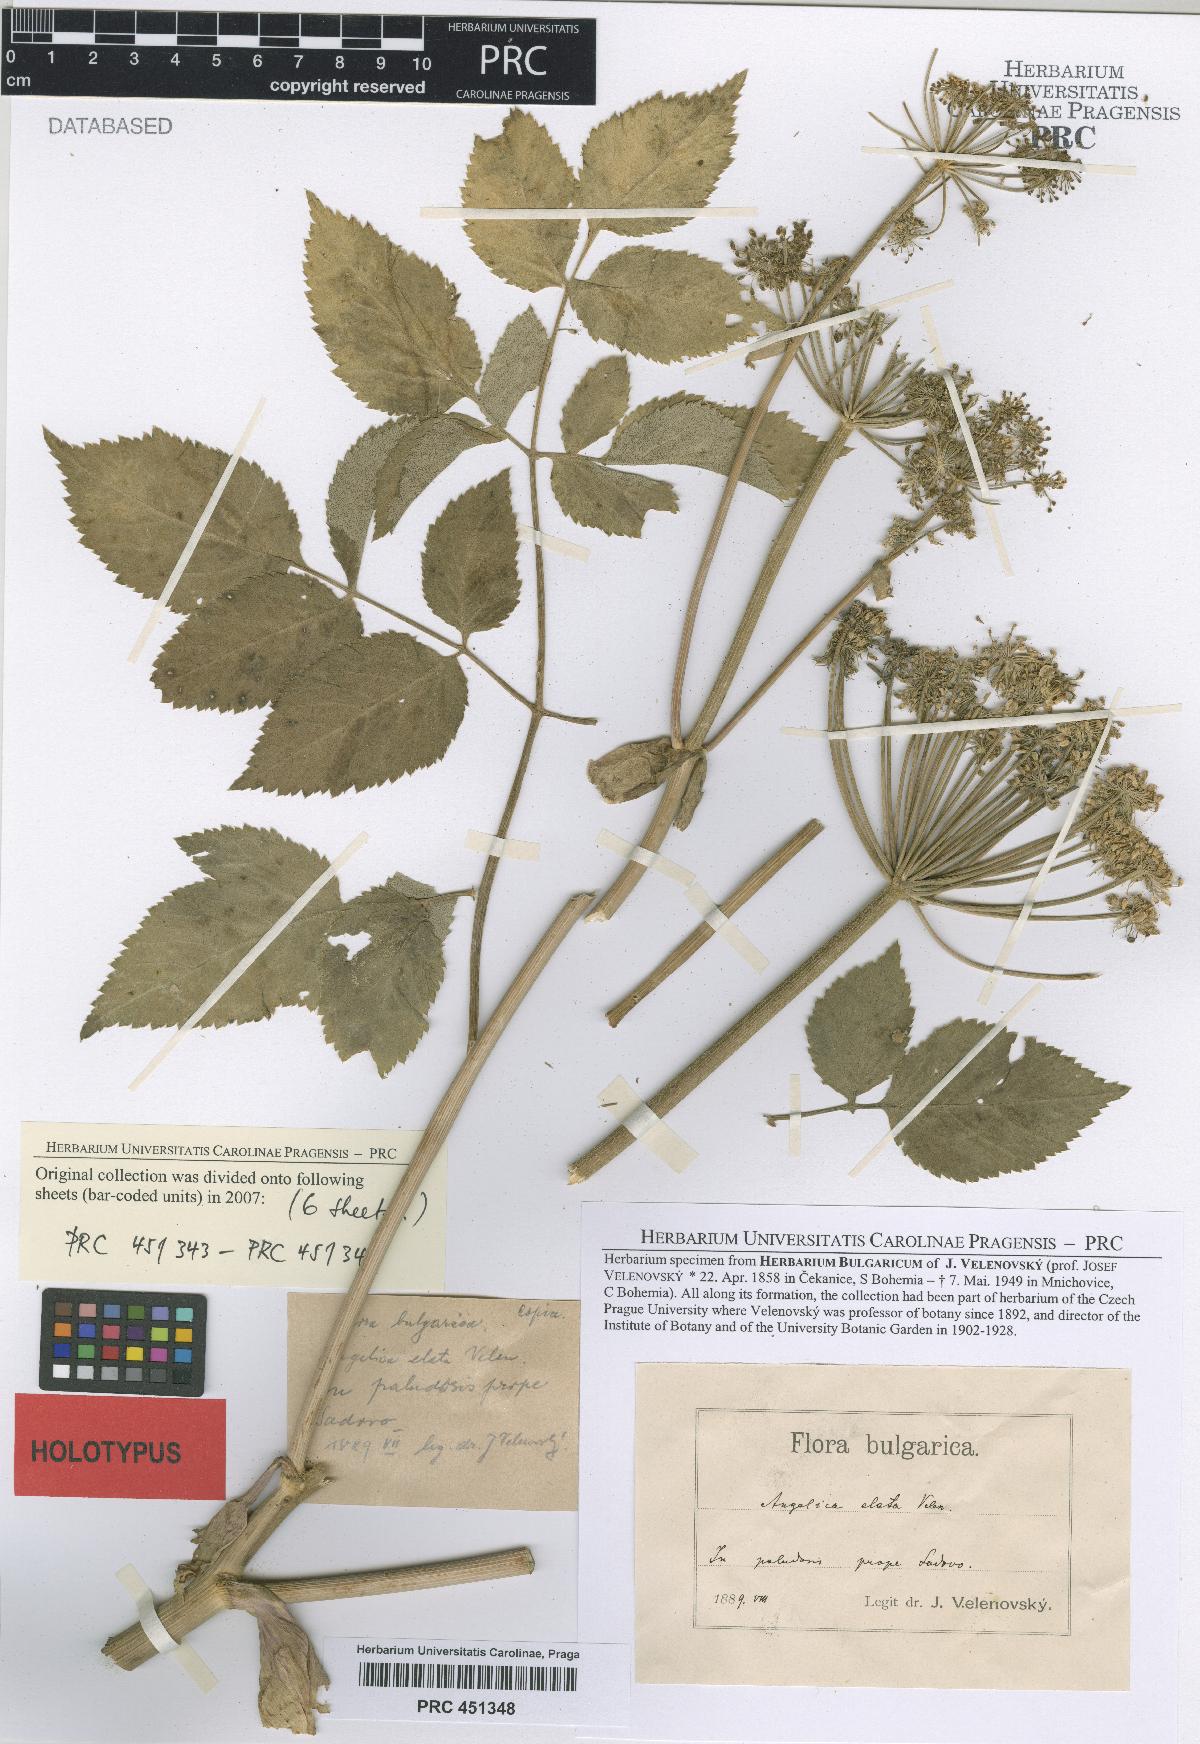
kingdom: Plantae
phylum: Tracheophyta
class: Magnoliopsida
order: Apiales
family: Apiaceae
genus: Angelica
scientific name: Angelica sylvestris
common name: Wild angelica
